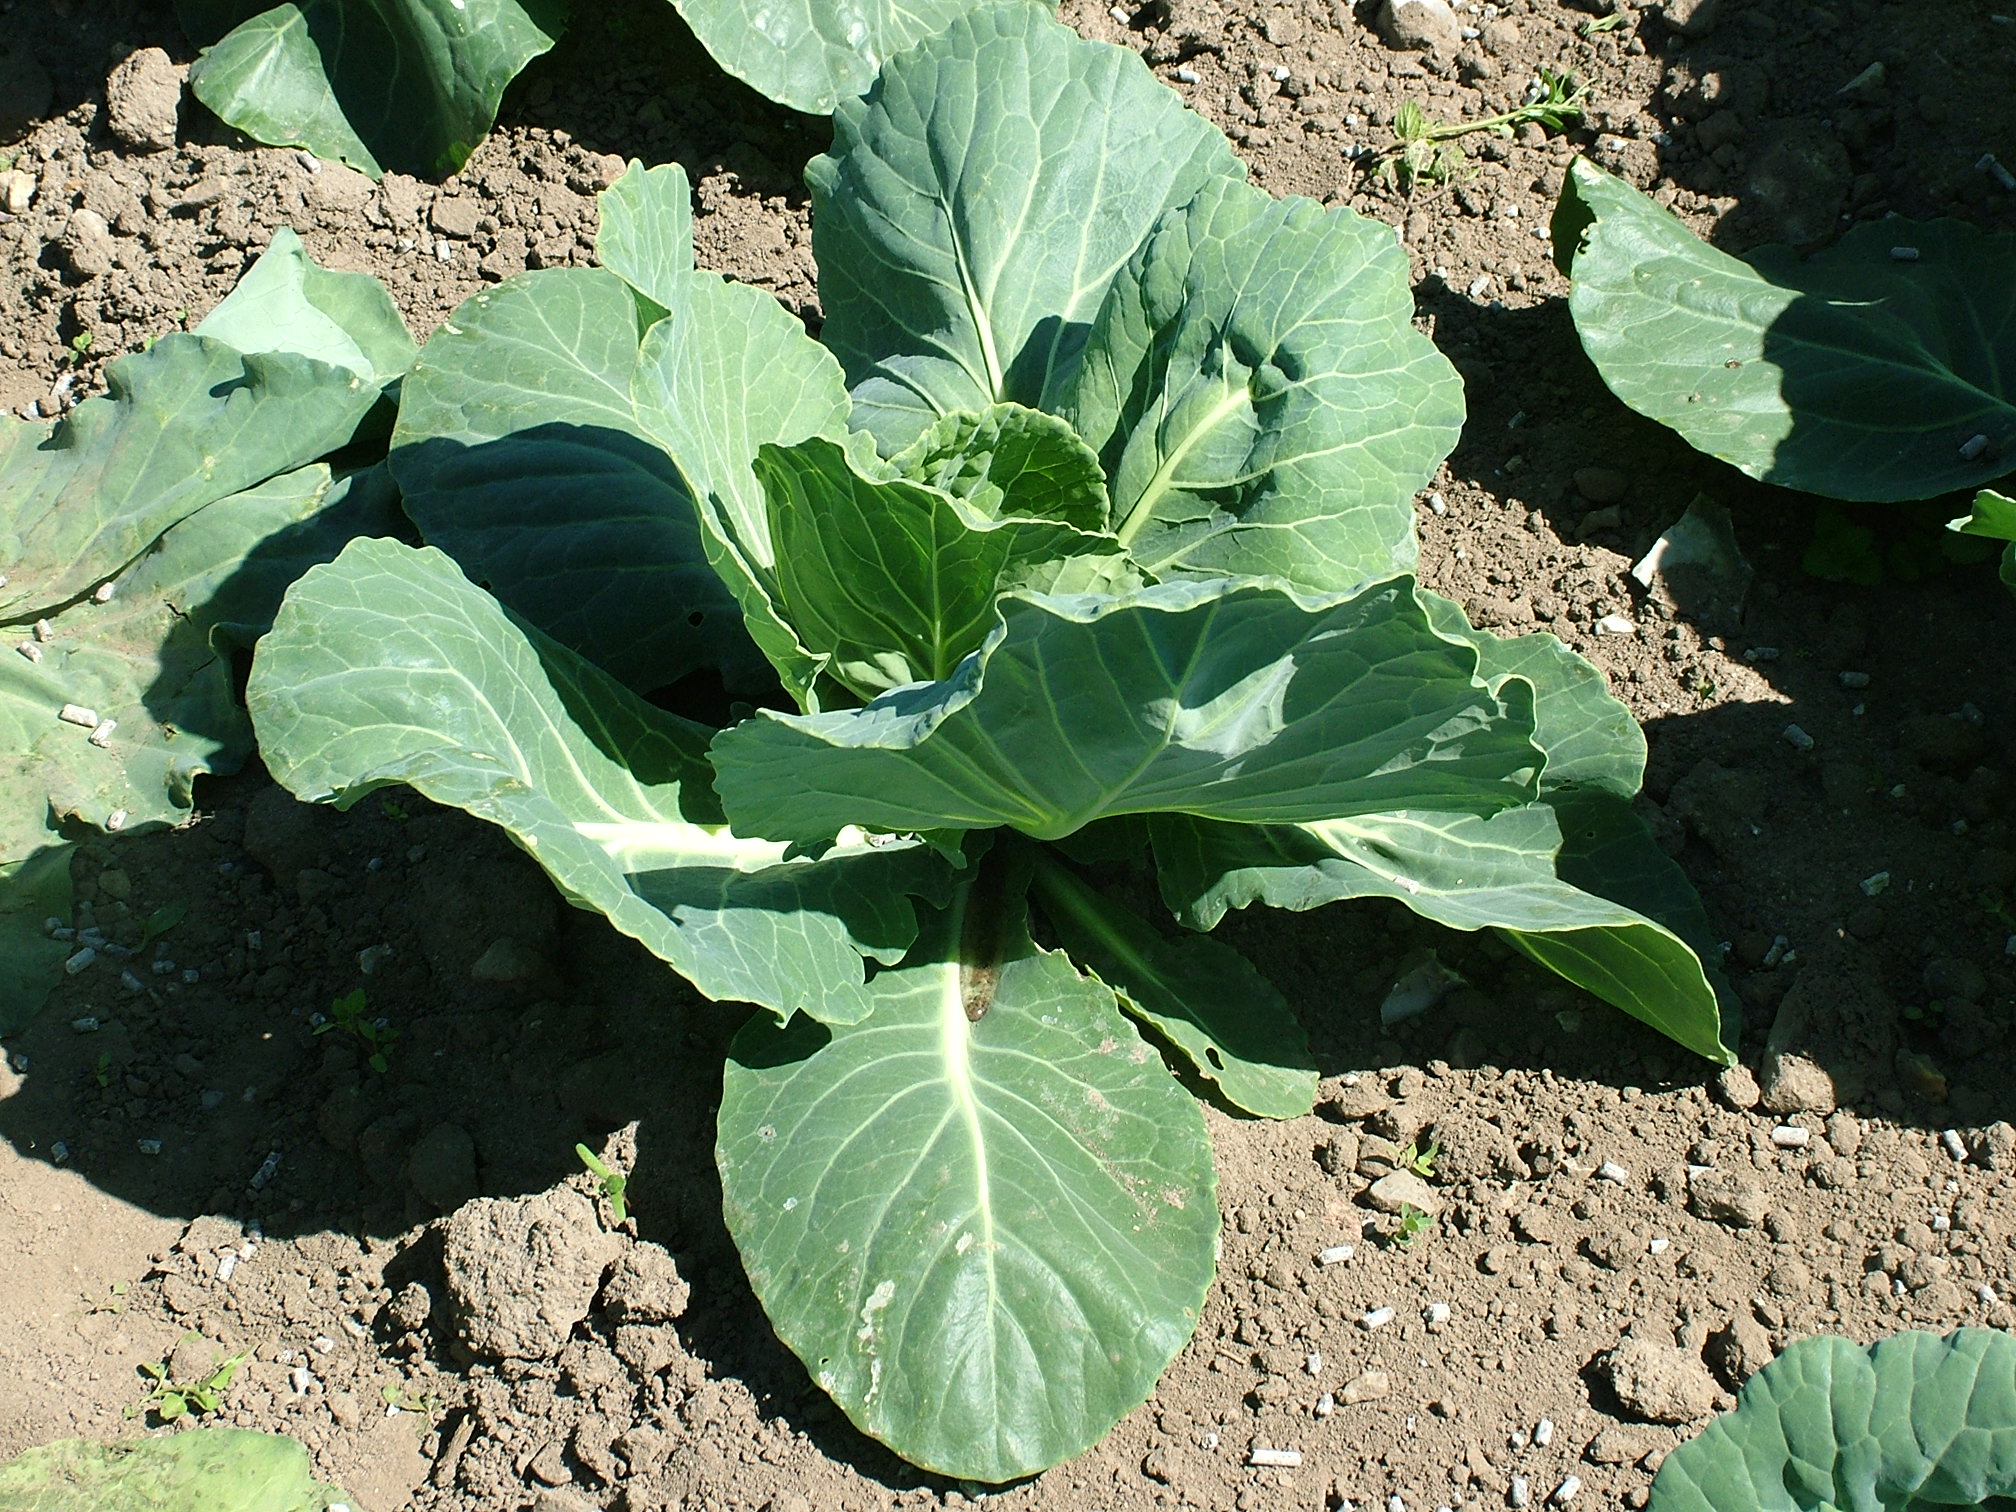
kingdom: Plantae
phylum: Tracheophyta
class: Magnoliopsida
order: Brassicales
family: Brassicaceae
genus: Brassica
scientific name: Brassica oleracea
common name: Cabbage
